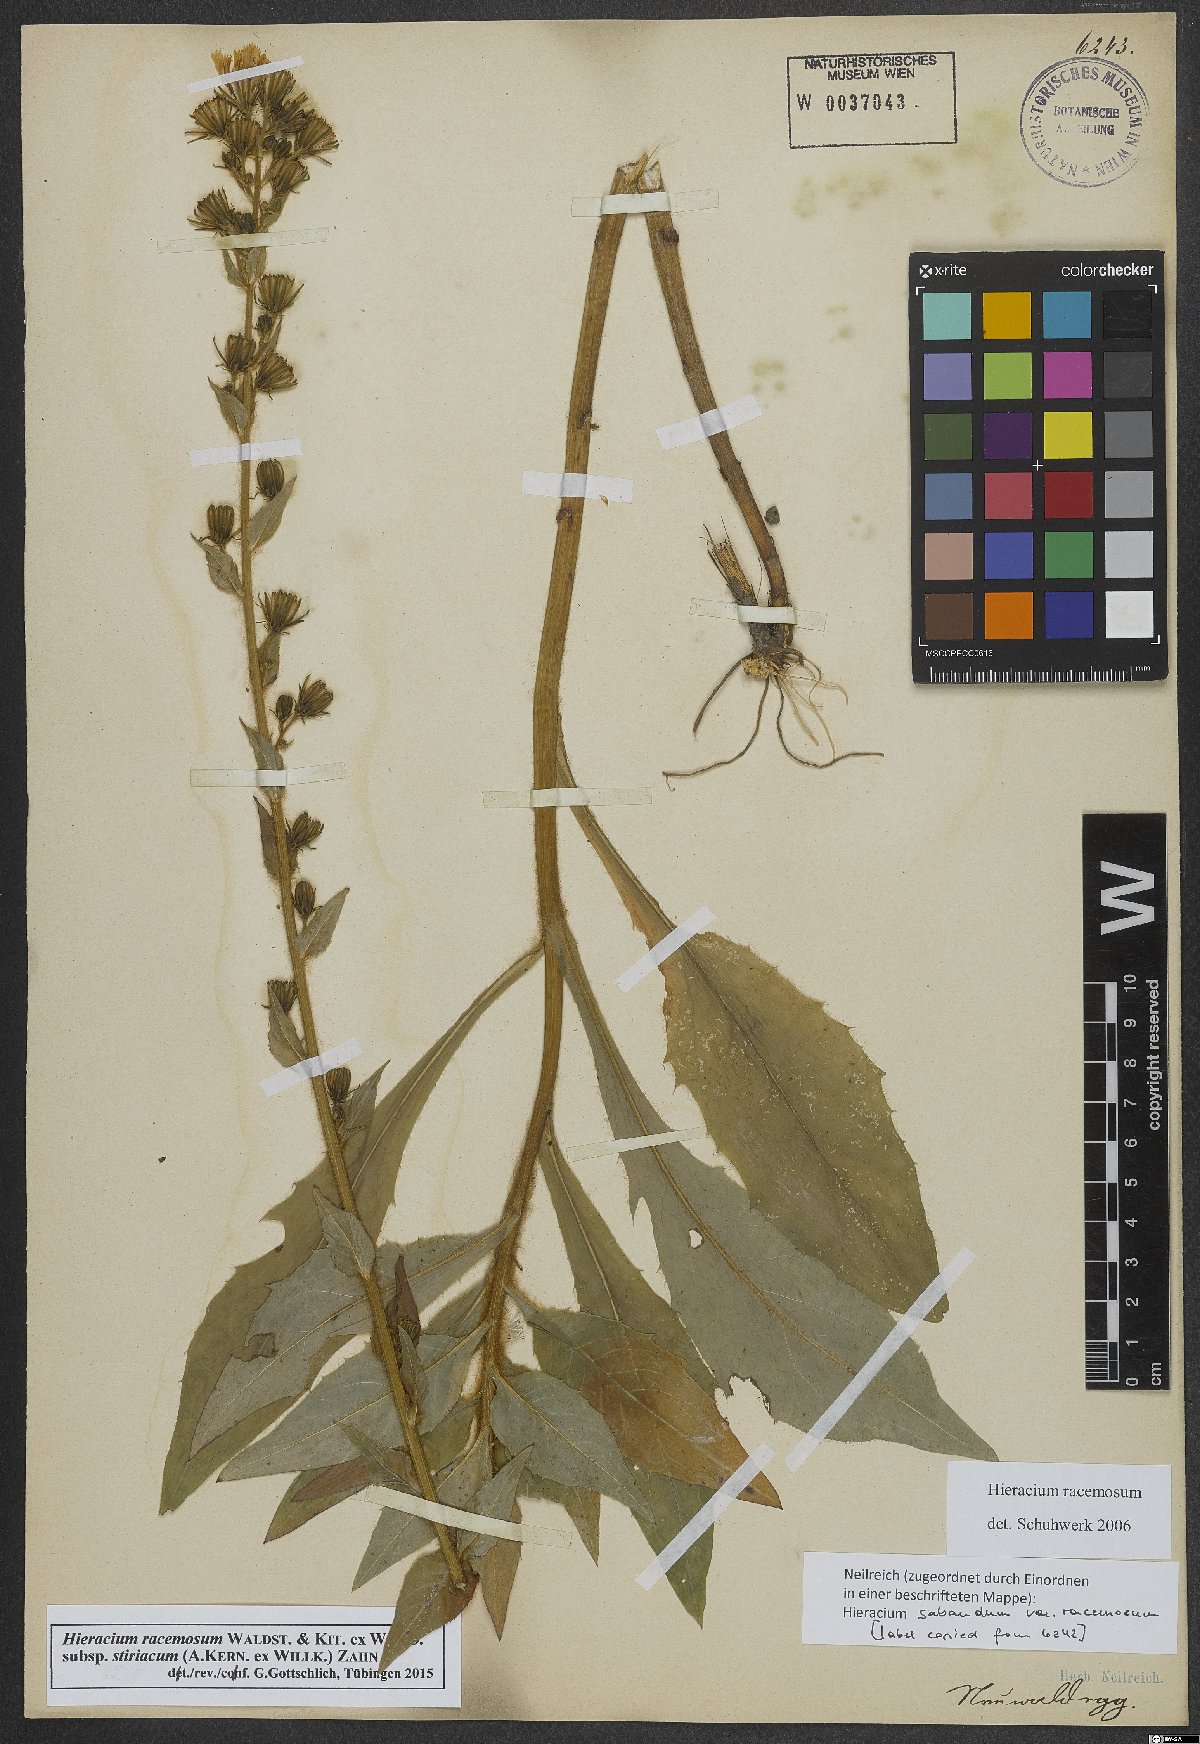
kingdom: Plantae
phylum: Tracheophyta
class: Magnoliopsida
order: Asterales
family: Asteraceae
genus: Hieracium
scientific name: Hieracium racemosum
